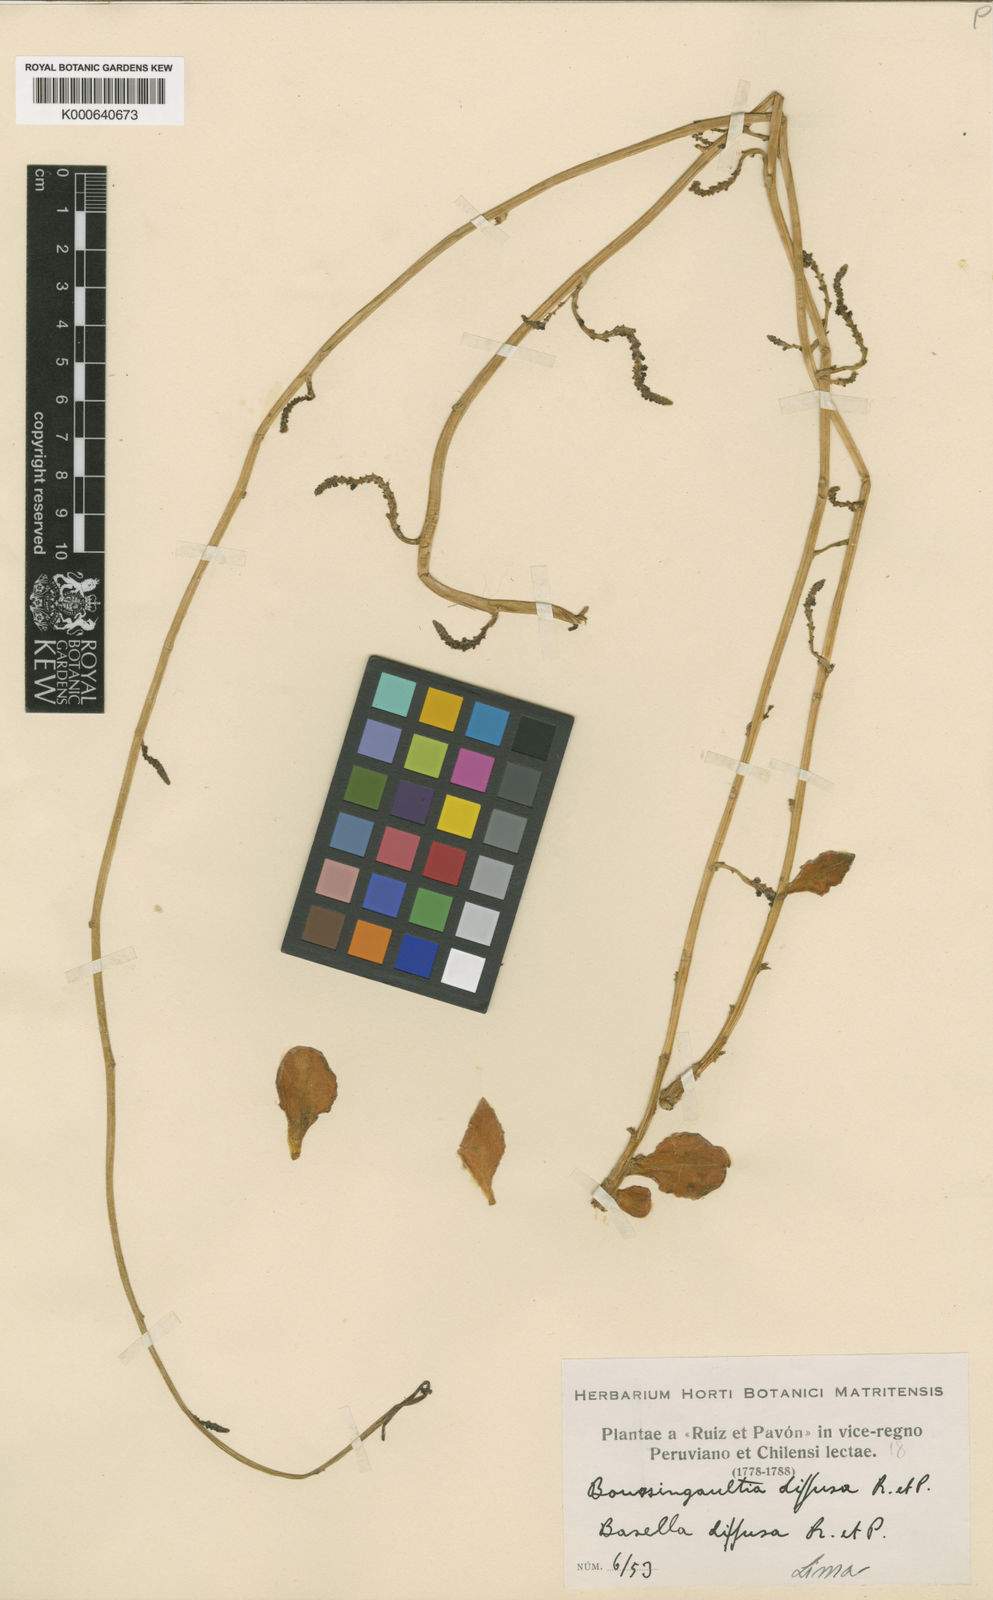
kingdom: Plantae
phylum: Tracheophyta
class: Magnoliopsida
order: Caryophyllales
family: Basellaceae
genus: Anredera
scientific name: Anredera diffusa
